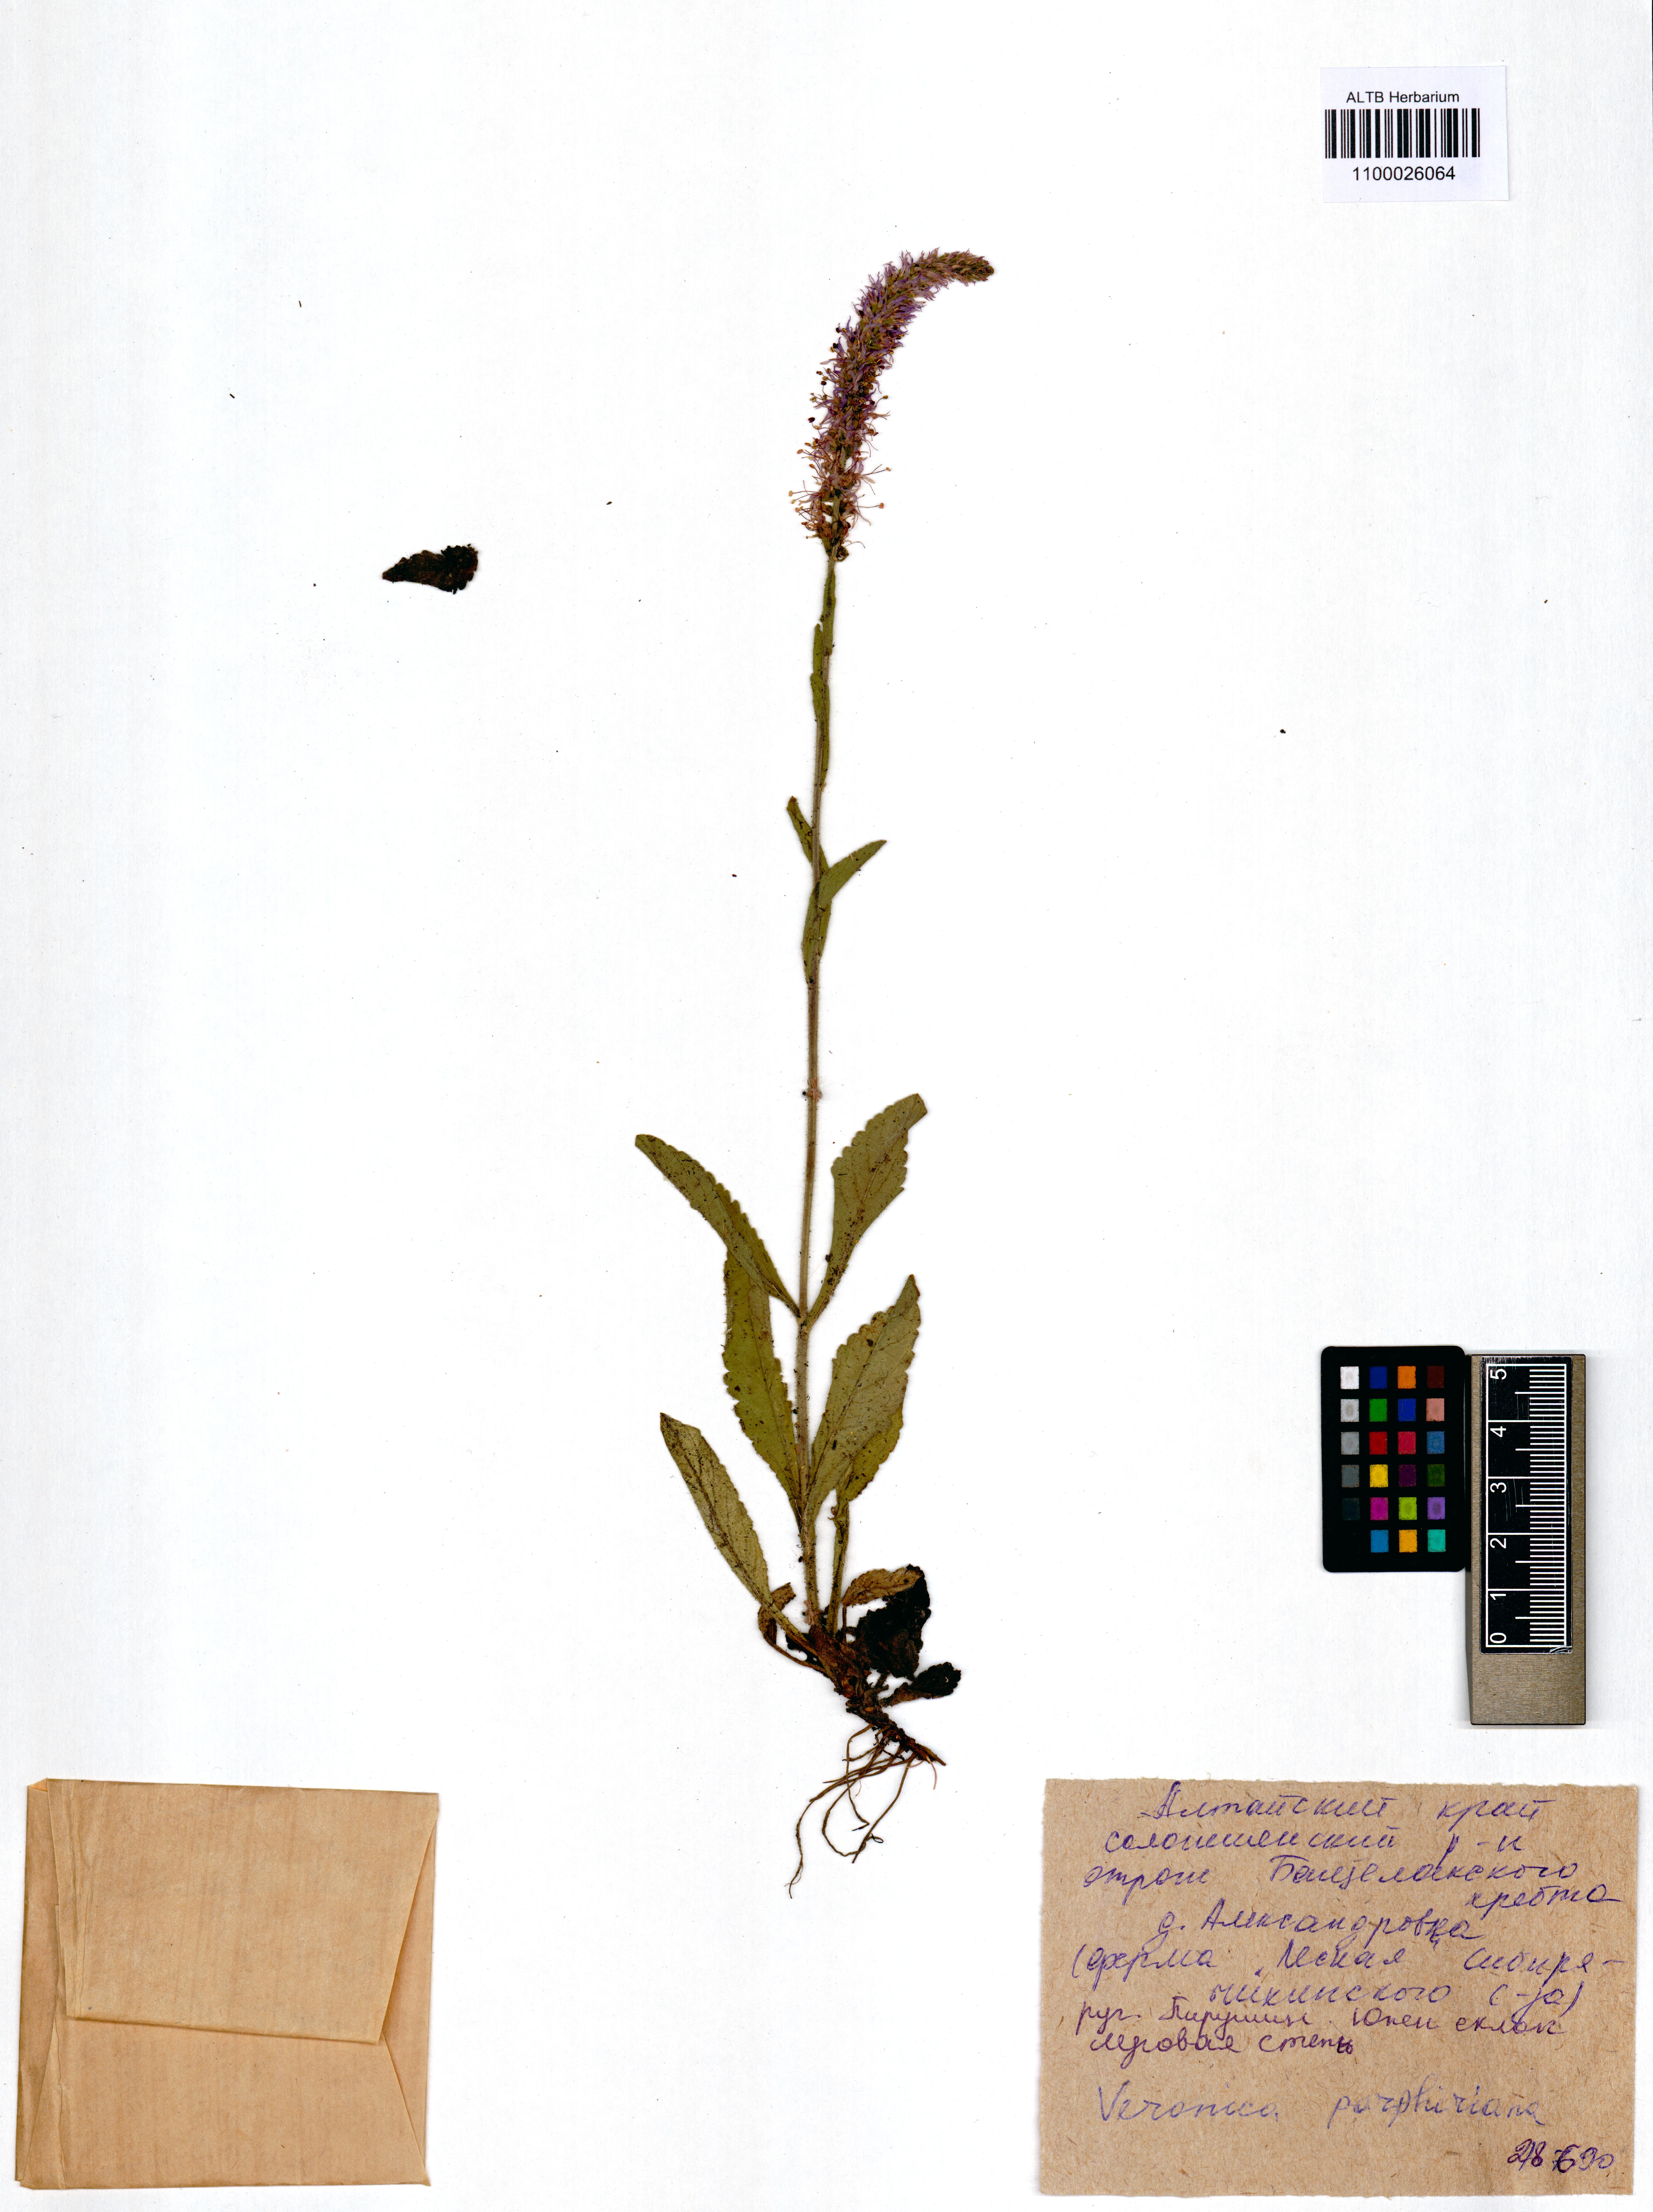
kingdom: Plantae
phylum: Tracheophyta
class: Magnoliopsida
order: Lamiales
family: Plantaginaceae
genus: Veronica
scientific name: Veronica porphyriana
